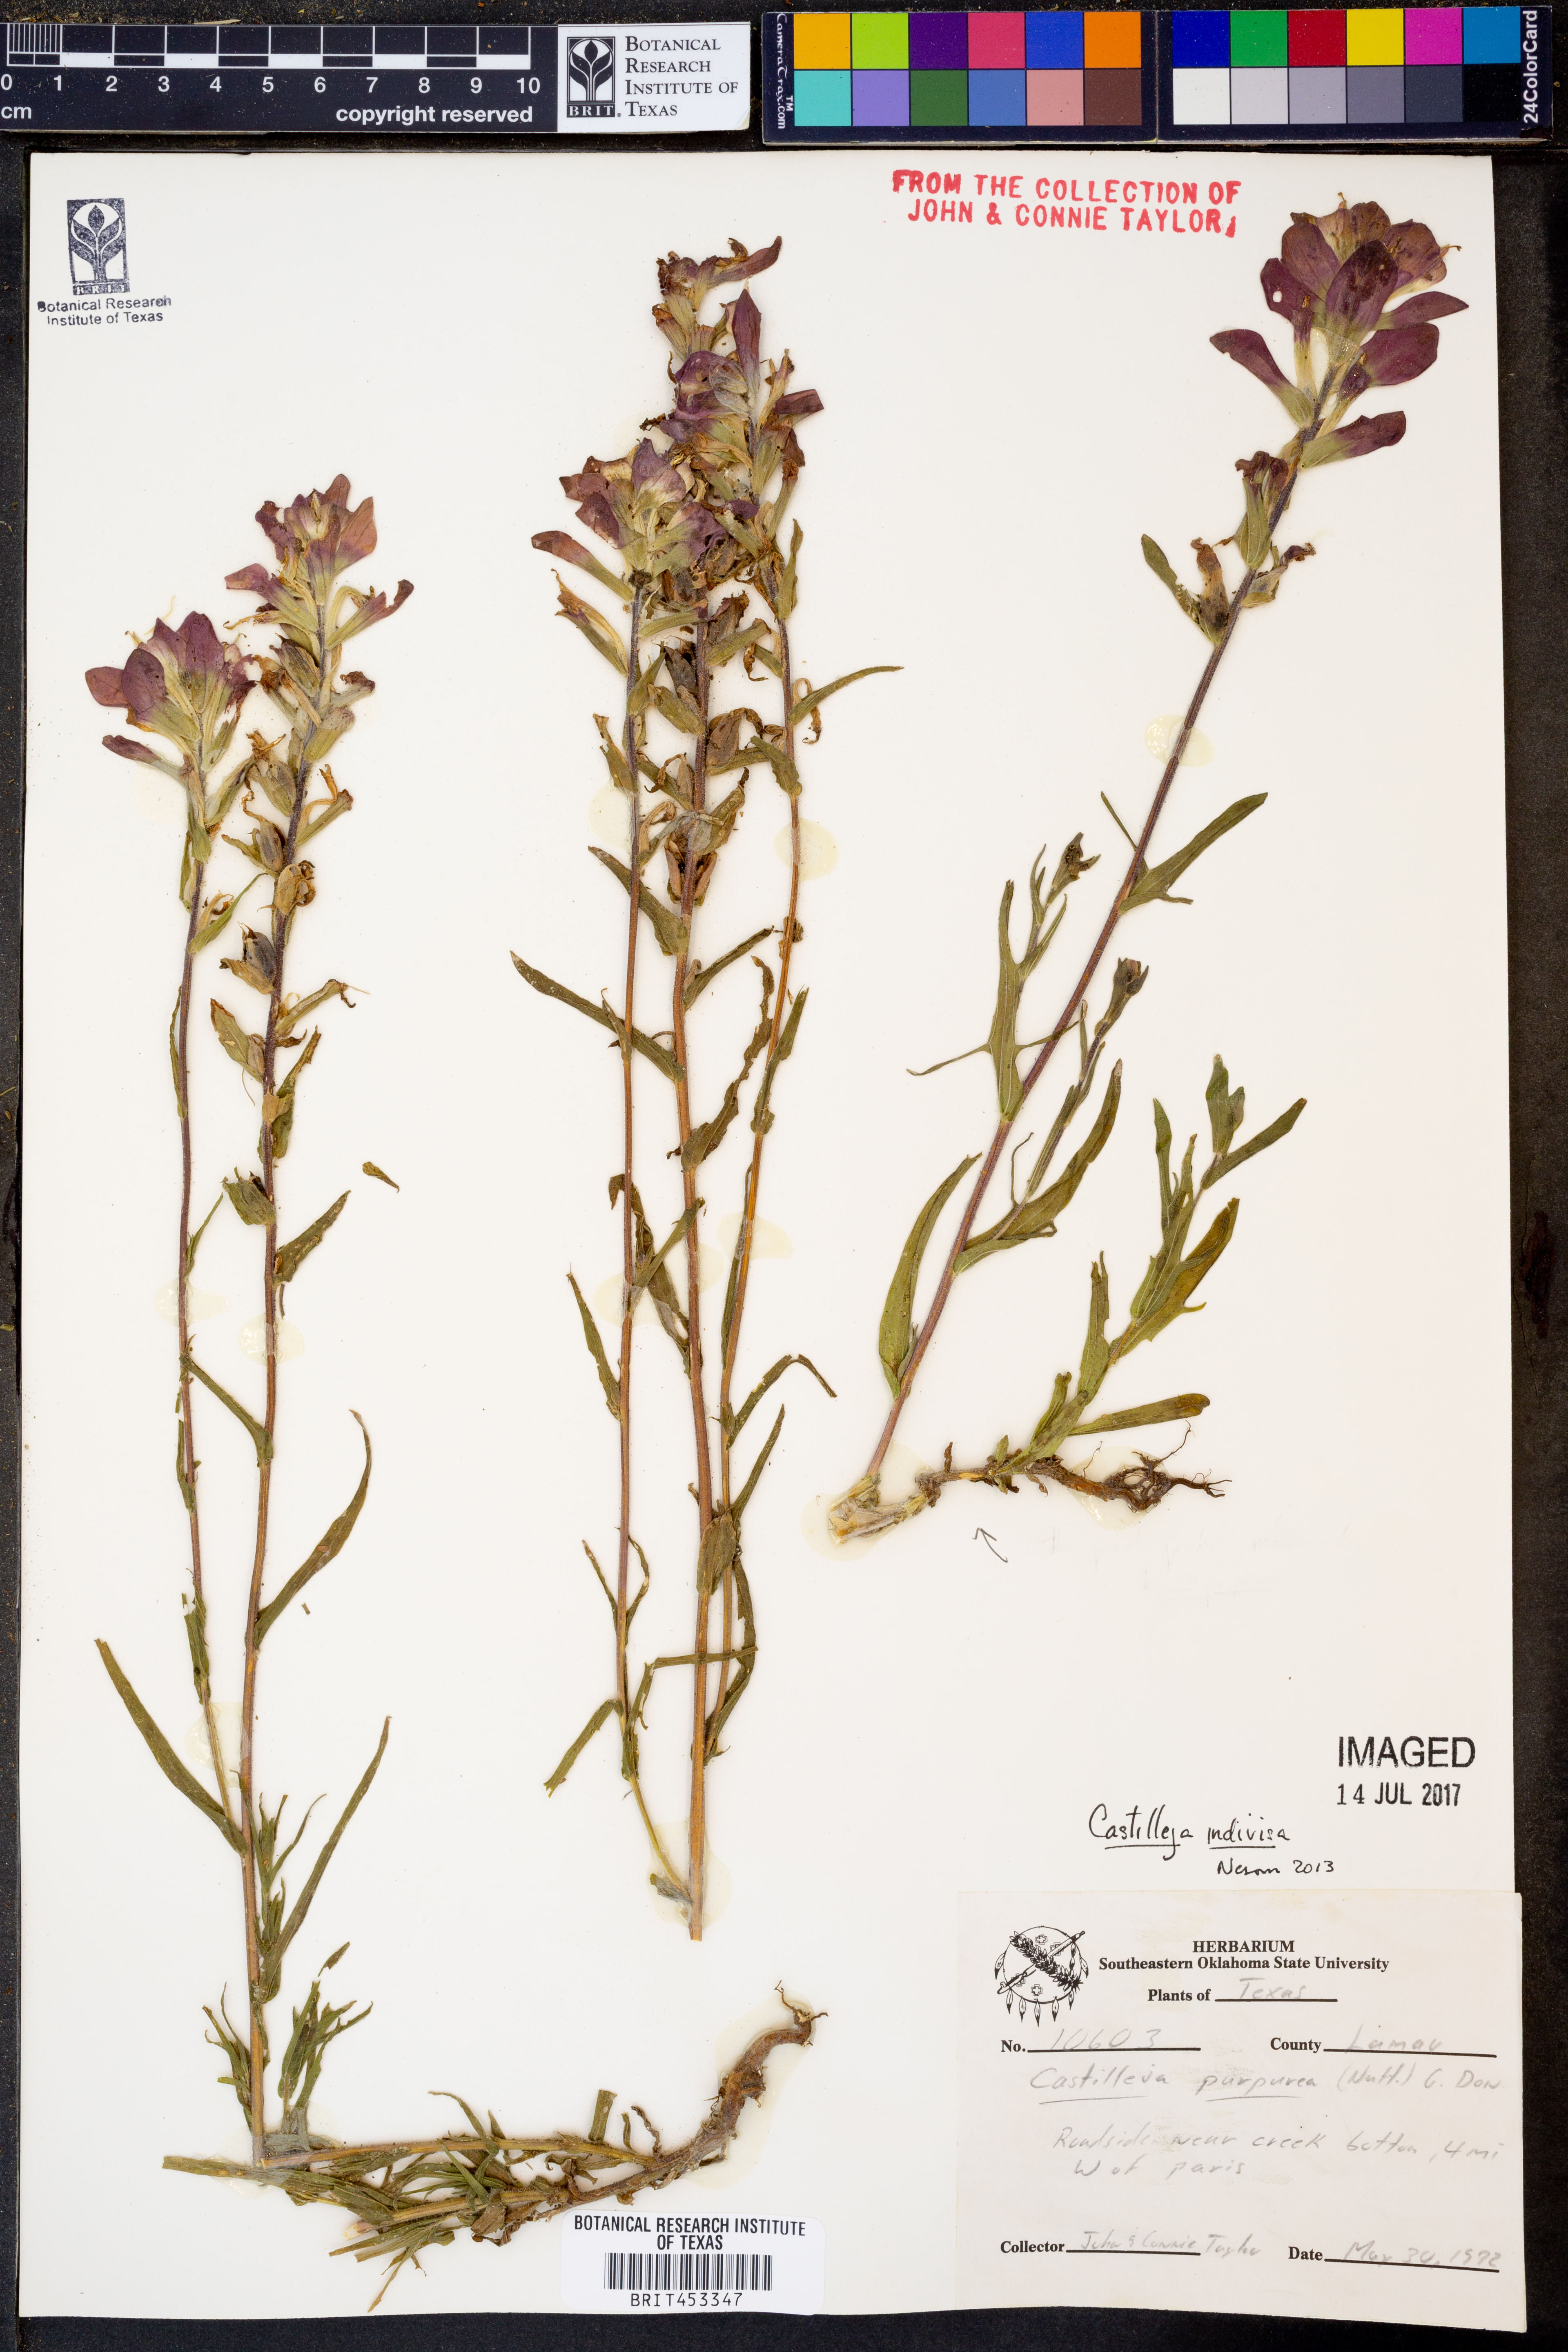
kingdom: Plantae
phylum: Tracheophyta
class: Magnoliopsida
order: Lamiales
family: Orobanchaceae
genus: Castilleja
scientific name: Castilleja indivisa
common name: Texas paintbrush
